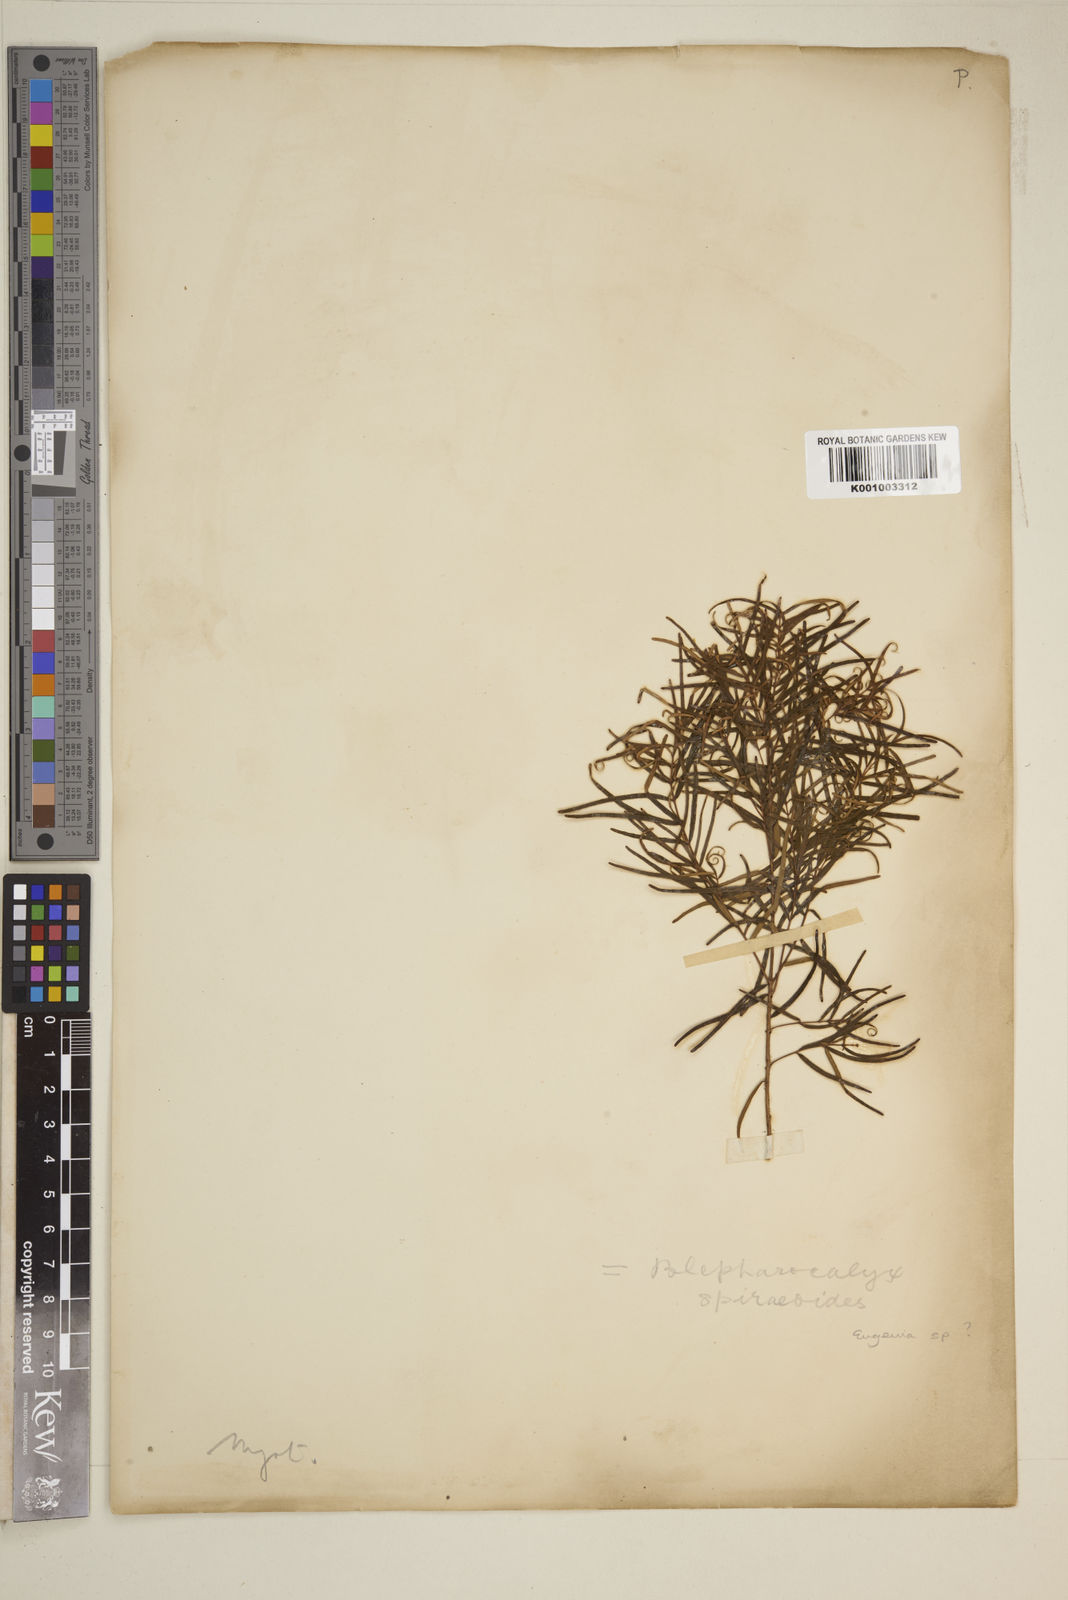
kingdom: Plantae
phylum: Tracheophyta
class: Magnoliopsida
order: Myrtales
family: Myrtaceae
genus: Eugenia
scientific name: Eugenia
